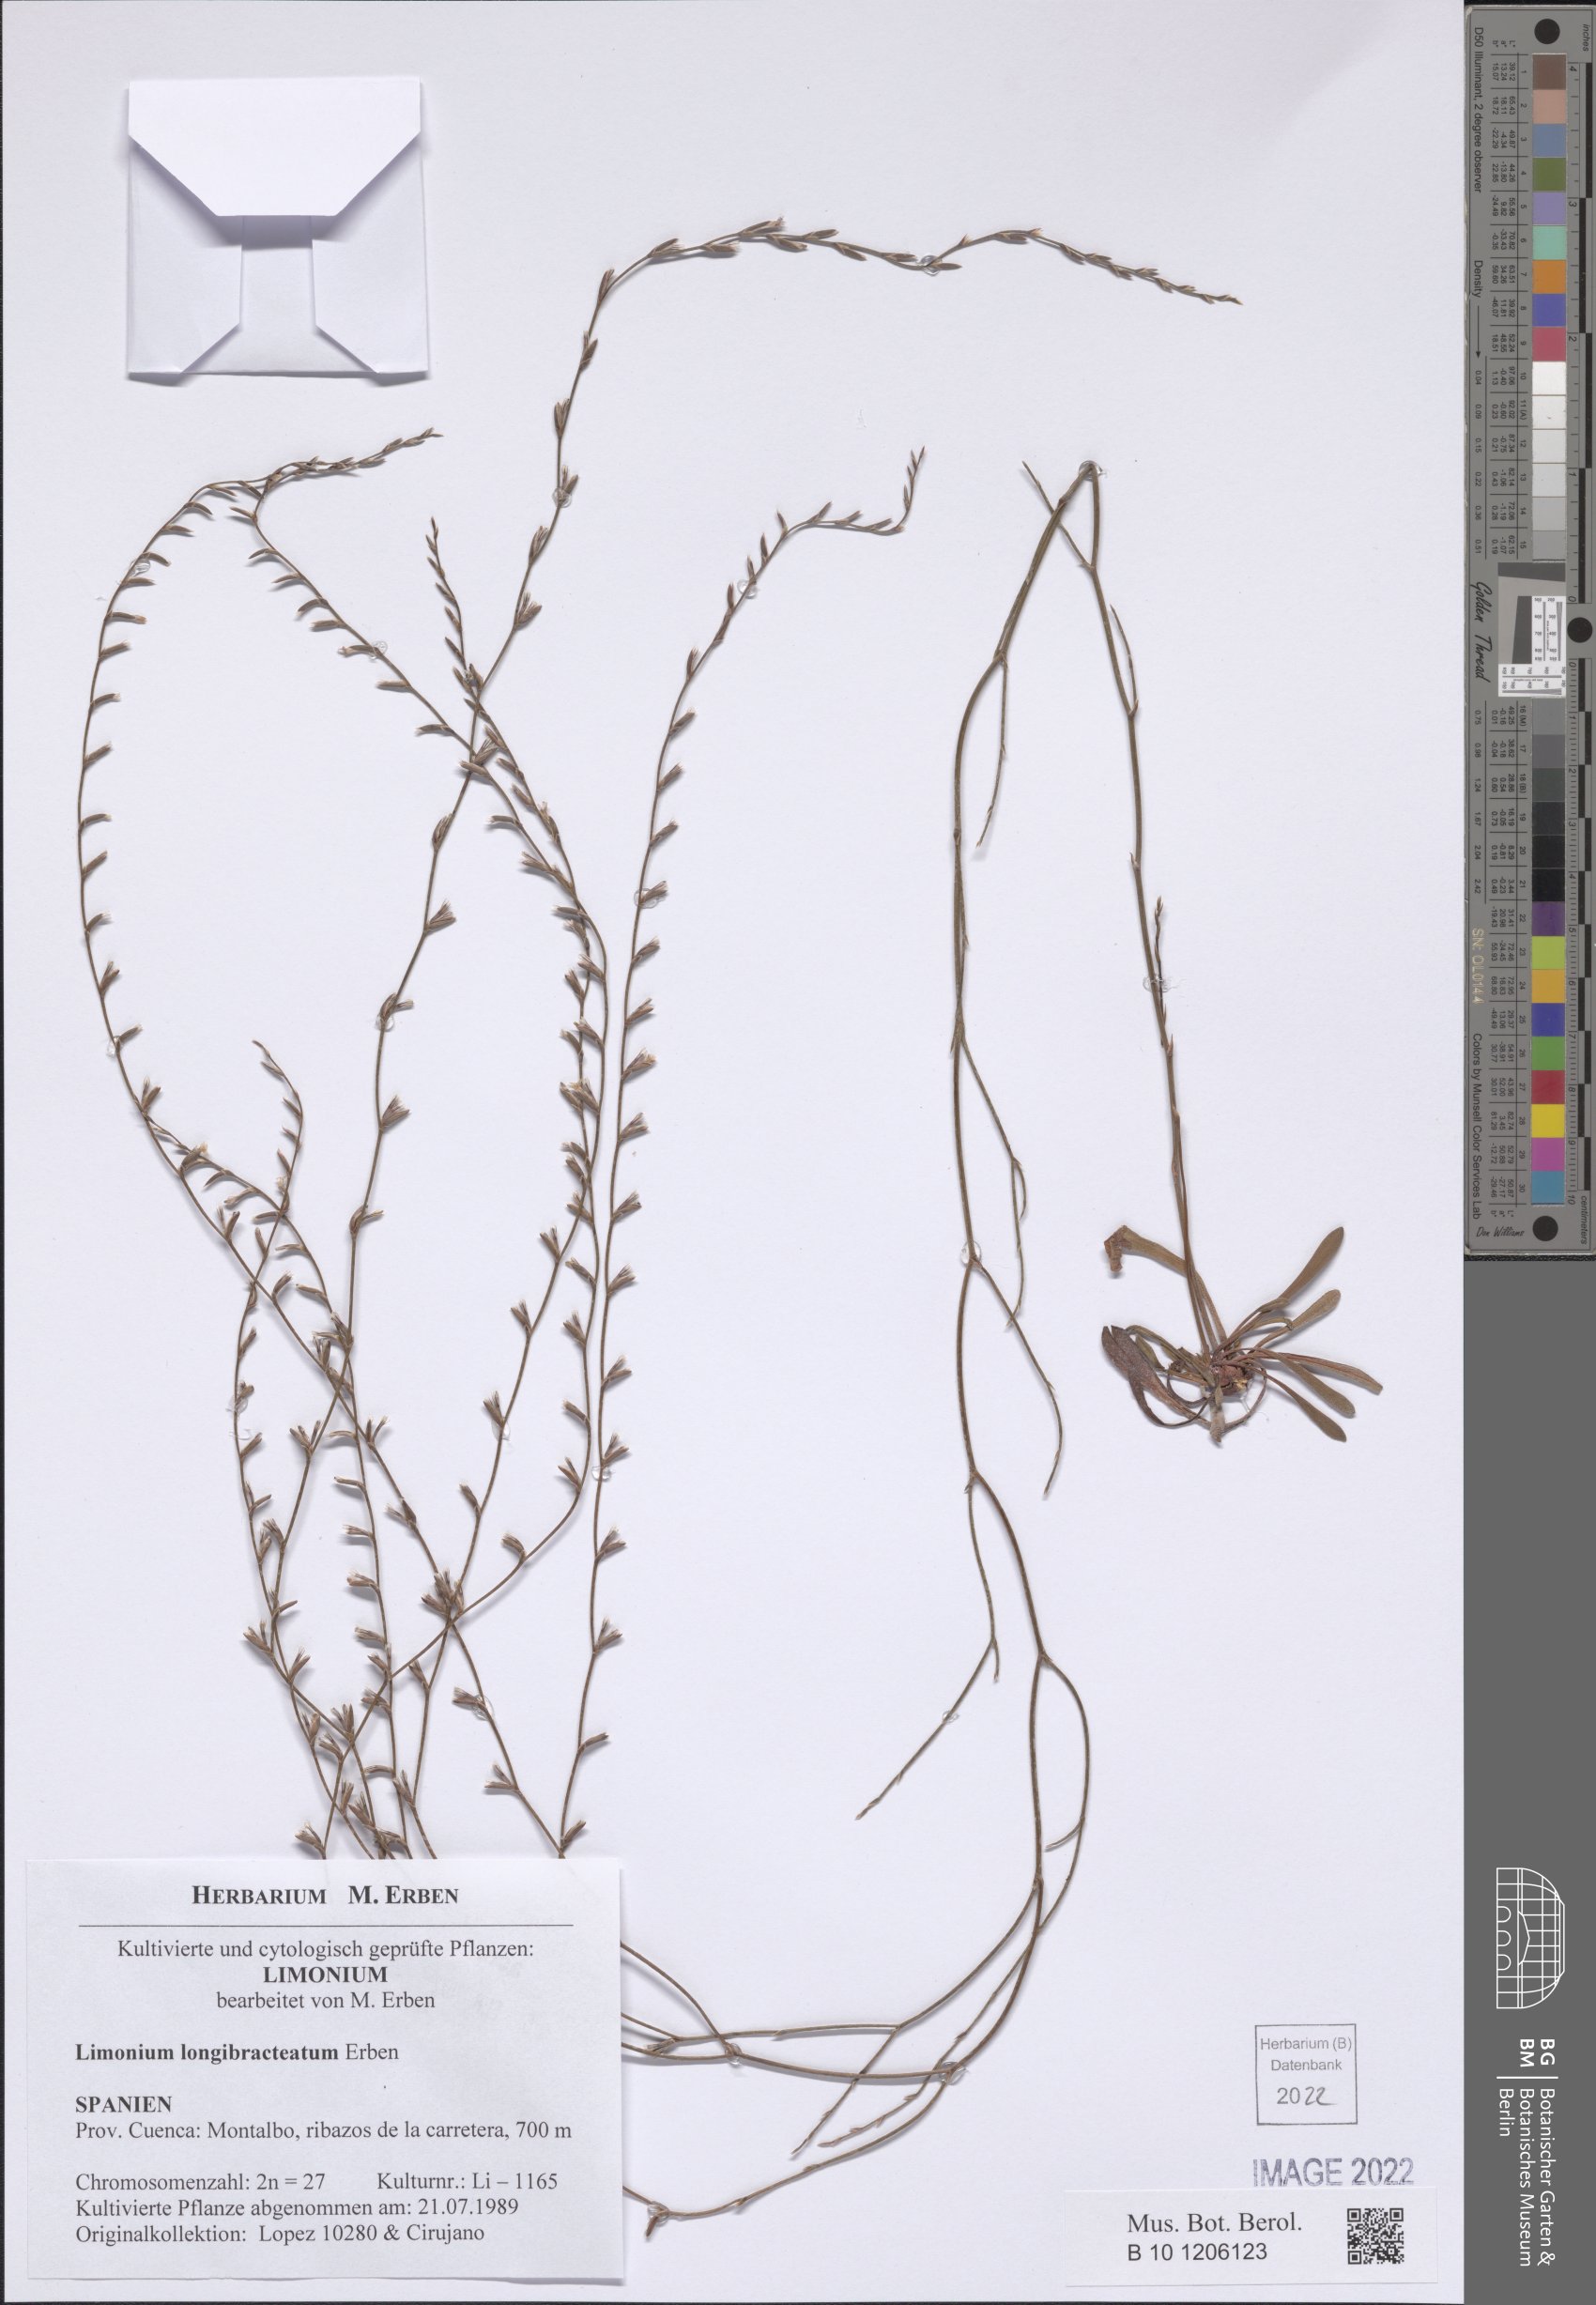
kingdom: Plantae
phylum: Tracheophyta
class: Magnoliopsida
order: Caryophyllales
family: Plumbaginaceae
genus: Limonium
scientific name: Limonium longibracteatum
